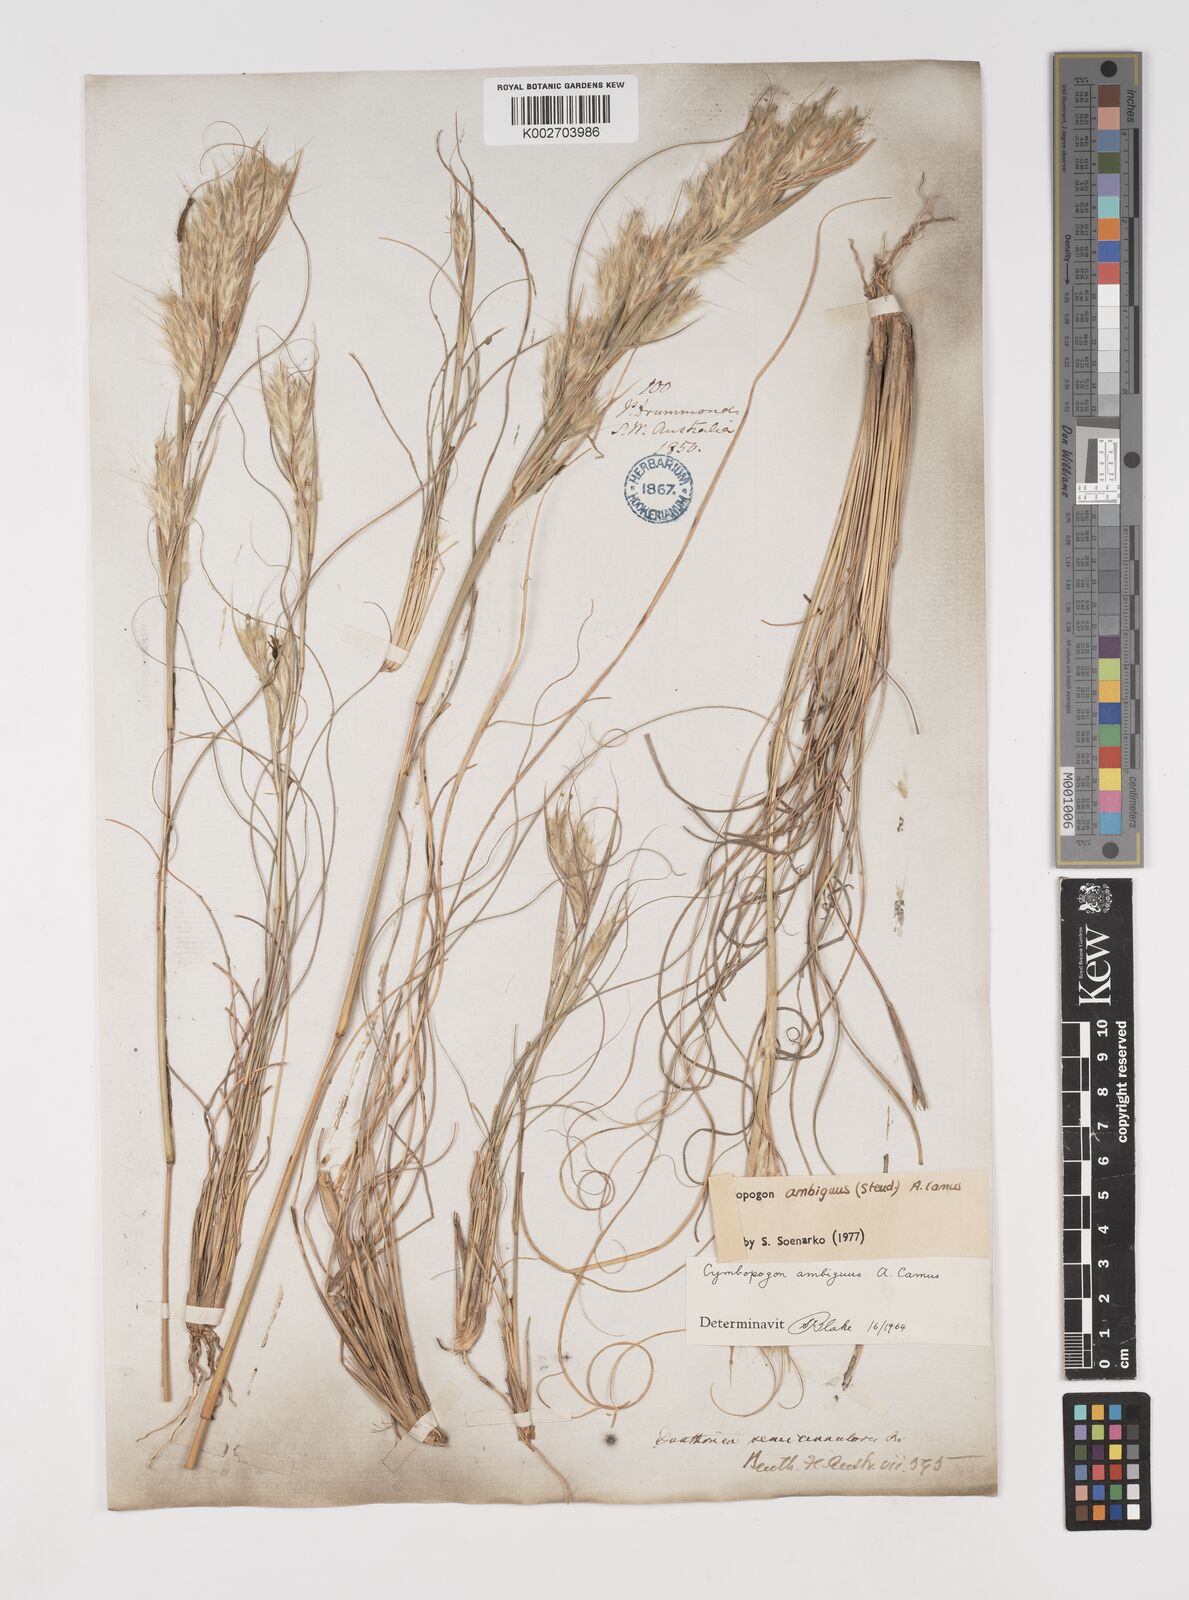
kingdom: Plantae
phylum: Tracheophyta
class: Liliopsida
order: Poales
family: Poaceae
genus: Cymbopogon
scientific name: Cymbopogon ambiguus
